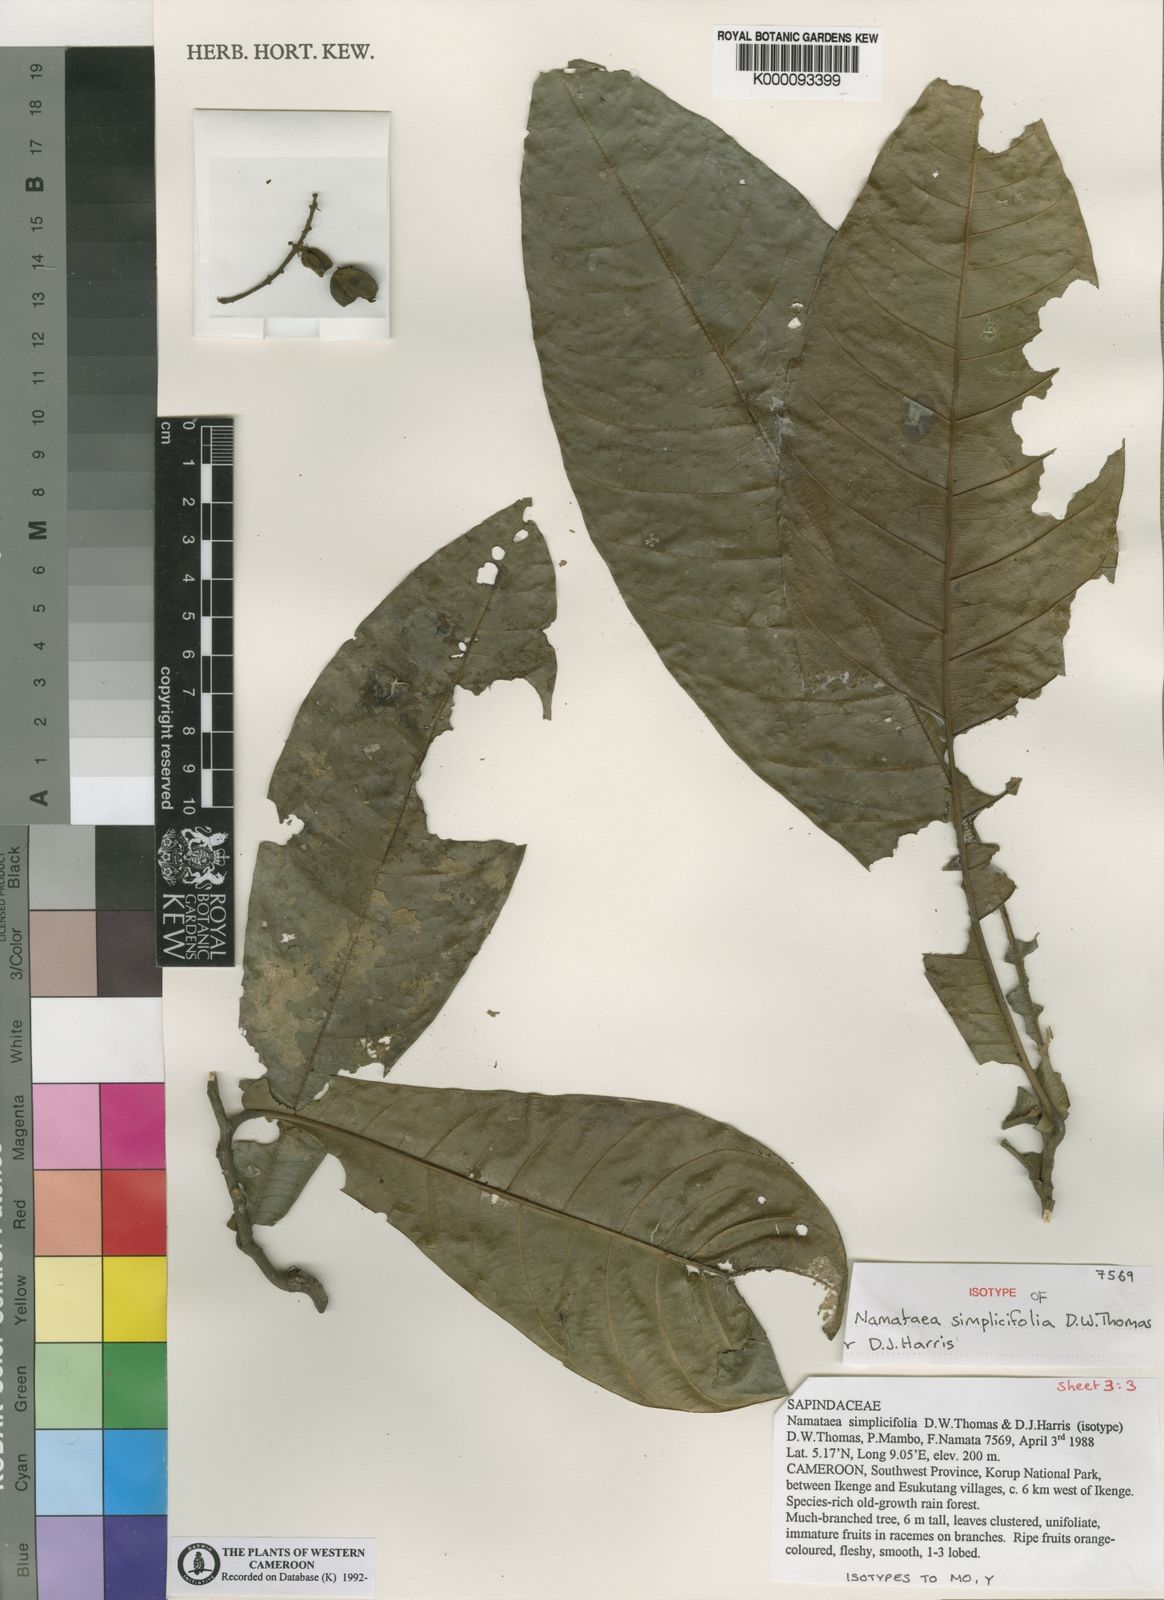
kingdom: Plantae
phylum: Tracheophyta
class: Magnoliopsida
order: Sapindales
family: Sapindaceae
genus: Namataea
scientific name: Namataea simplicifolia
